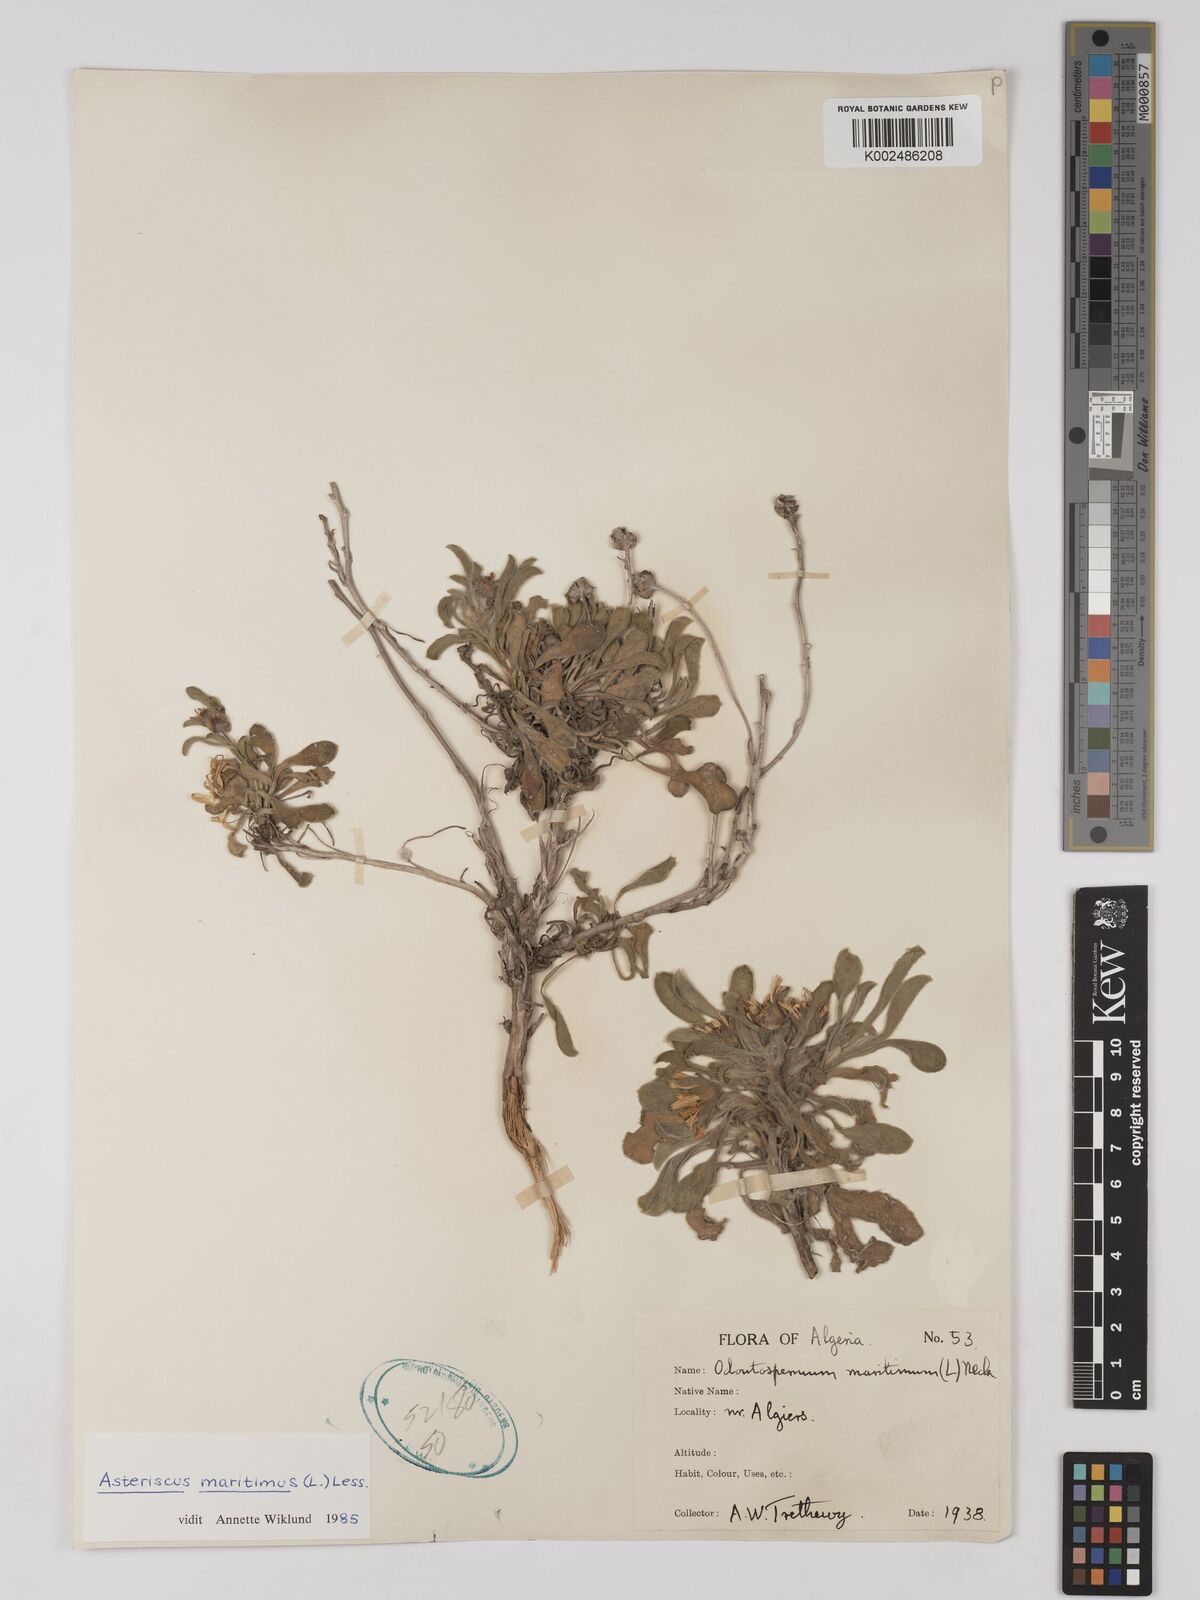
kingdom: Plantae
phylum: Tracheophyta
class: Magnoliopsida
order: Asterales
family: Asteraceae
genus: Pallenis
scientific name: Pallenis maritima
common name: Golden coin daisy
